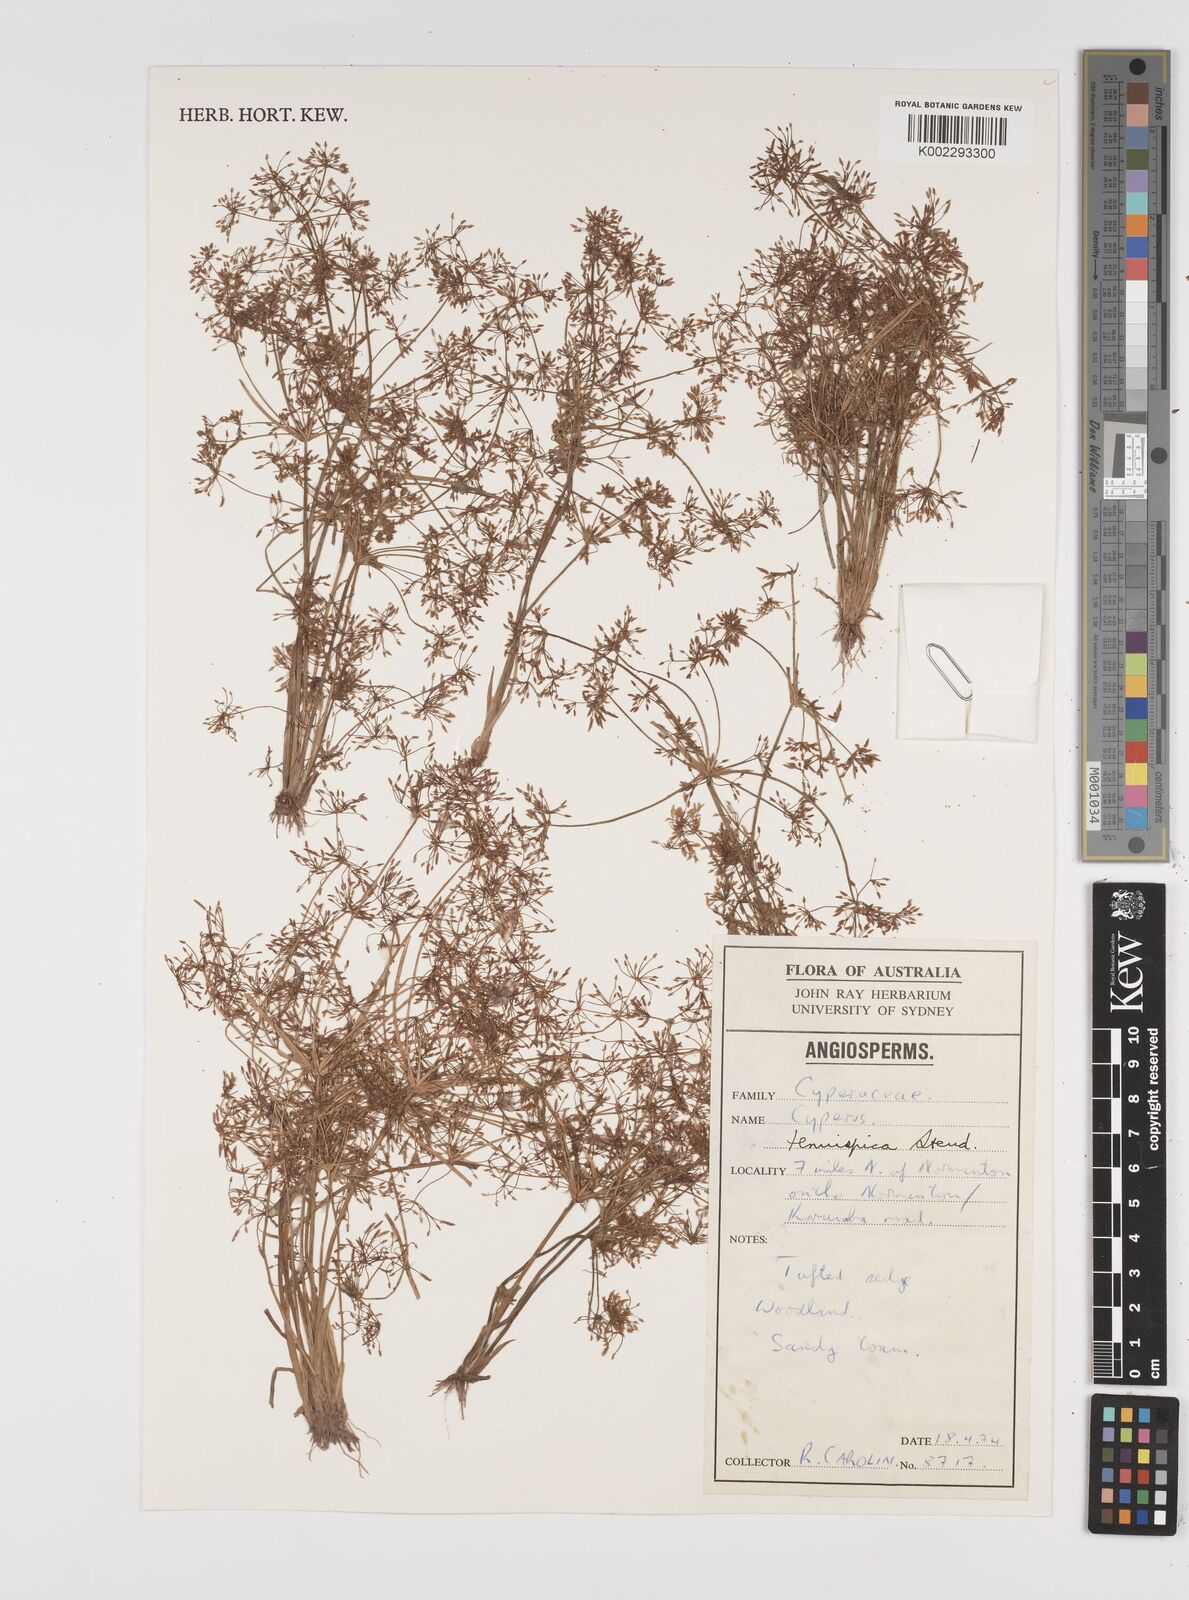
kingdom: Plantae
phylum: Tracheophyta
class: Liliopsida
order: Poales
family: Cyperaceae
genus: Cyperus
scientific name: Cyperus tenuispica
